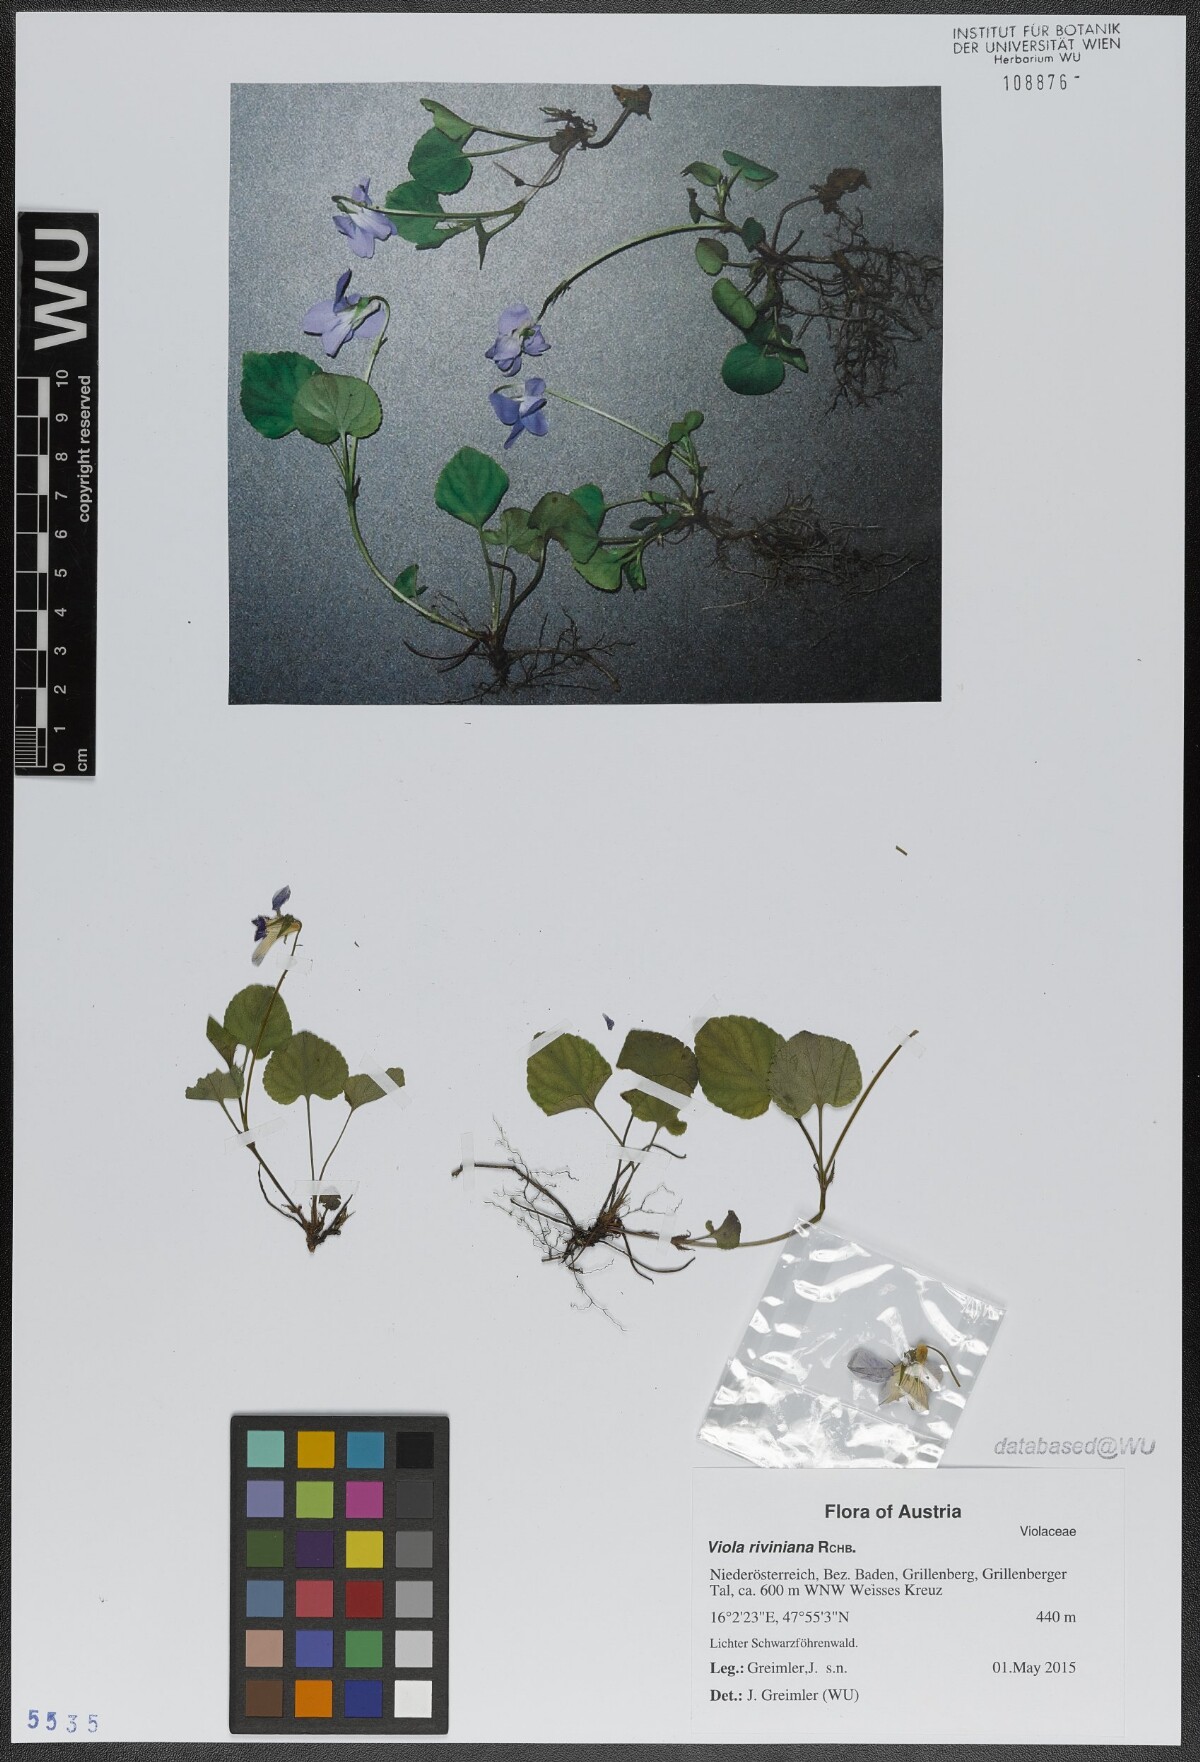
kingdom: Plantae
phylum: Tracheophyta
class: Magnoliopsida
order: Malpighiales
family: Violaceae
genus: Viola
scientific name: Viola riviniana
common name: Common dog-violet
